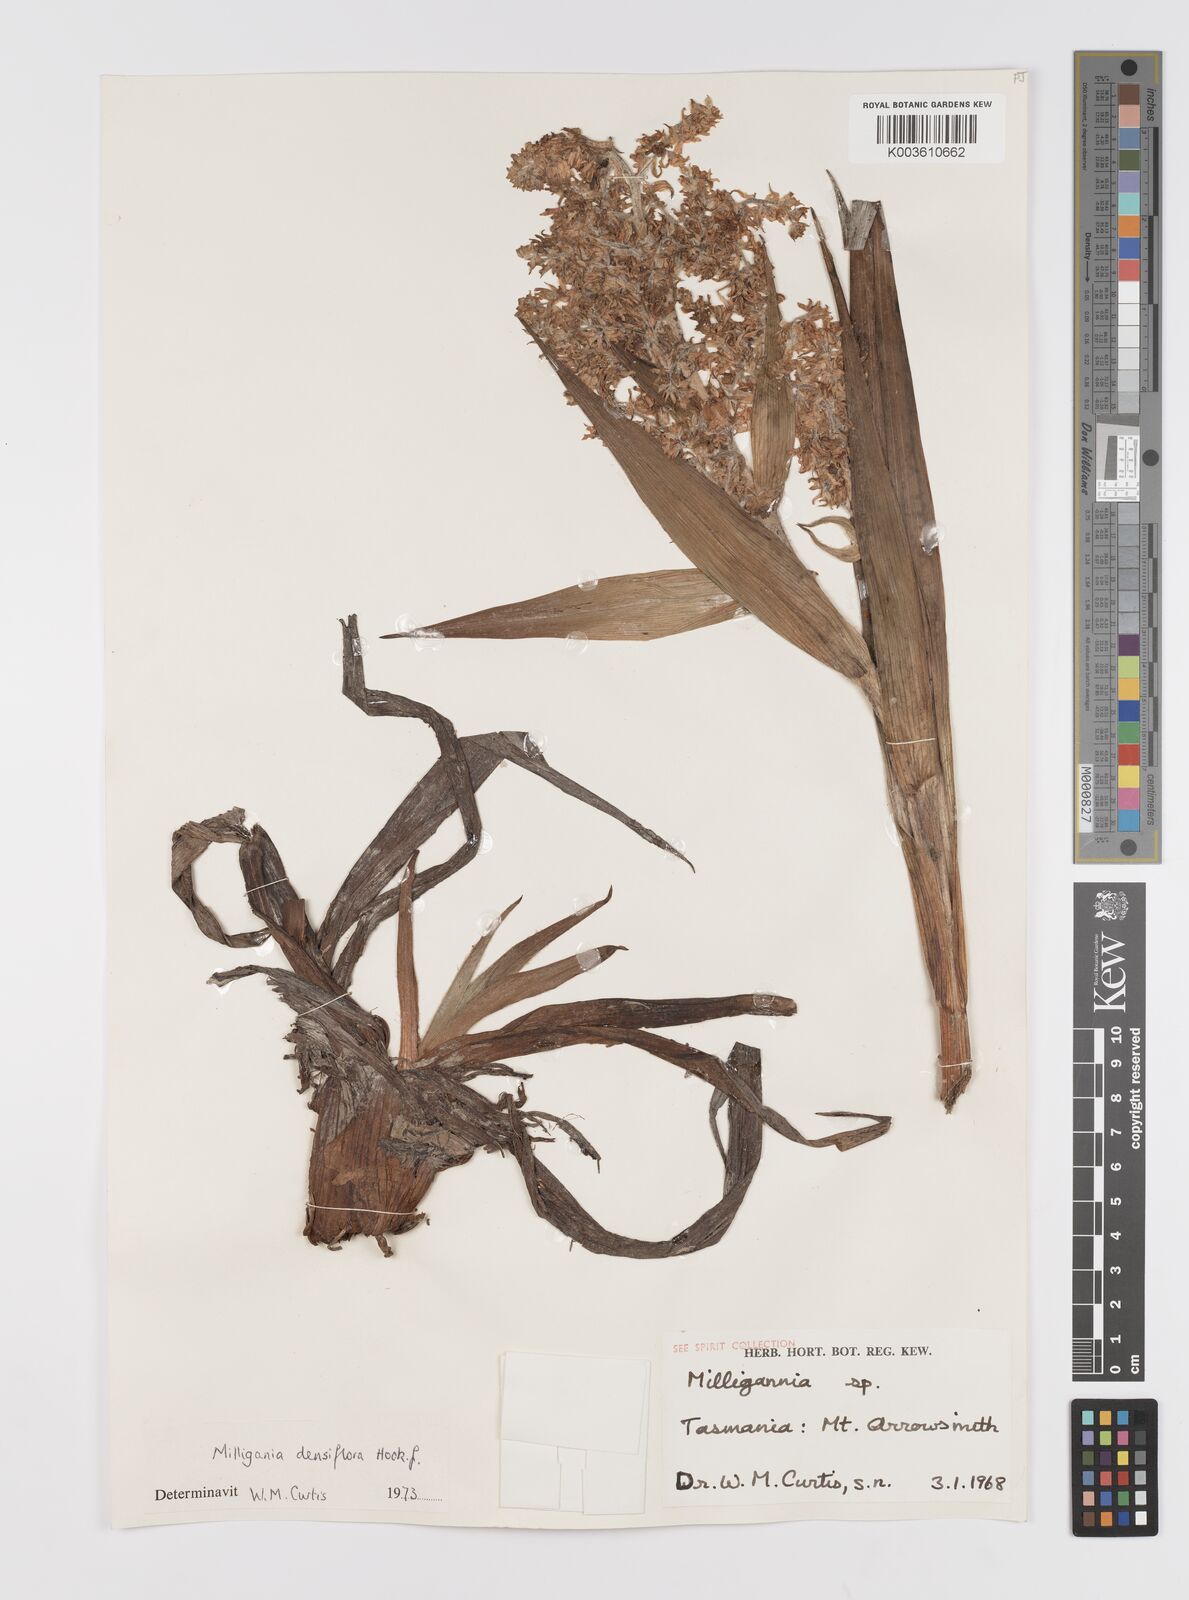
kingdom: Plantae
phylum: Tracheophyta
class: Liliopsida
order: Asparagales
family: Asteliaceae
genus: Milligania
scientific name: Milligania densiflora
